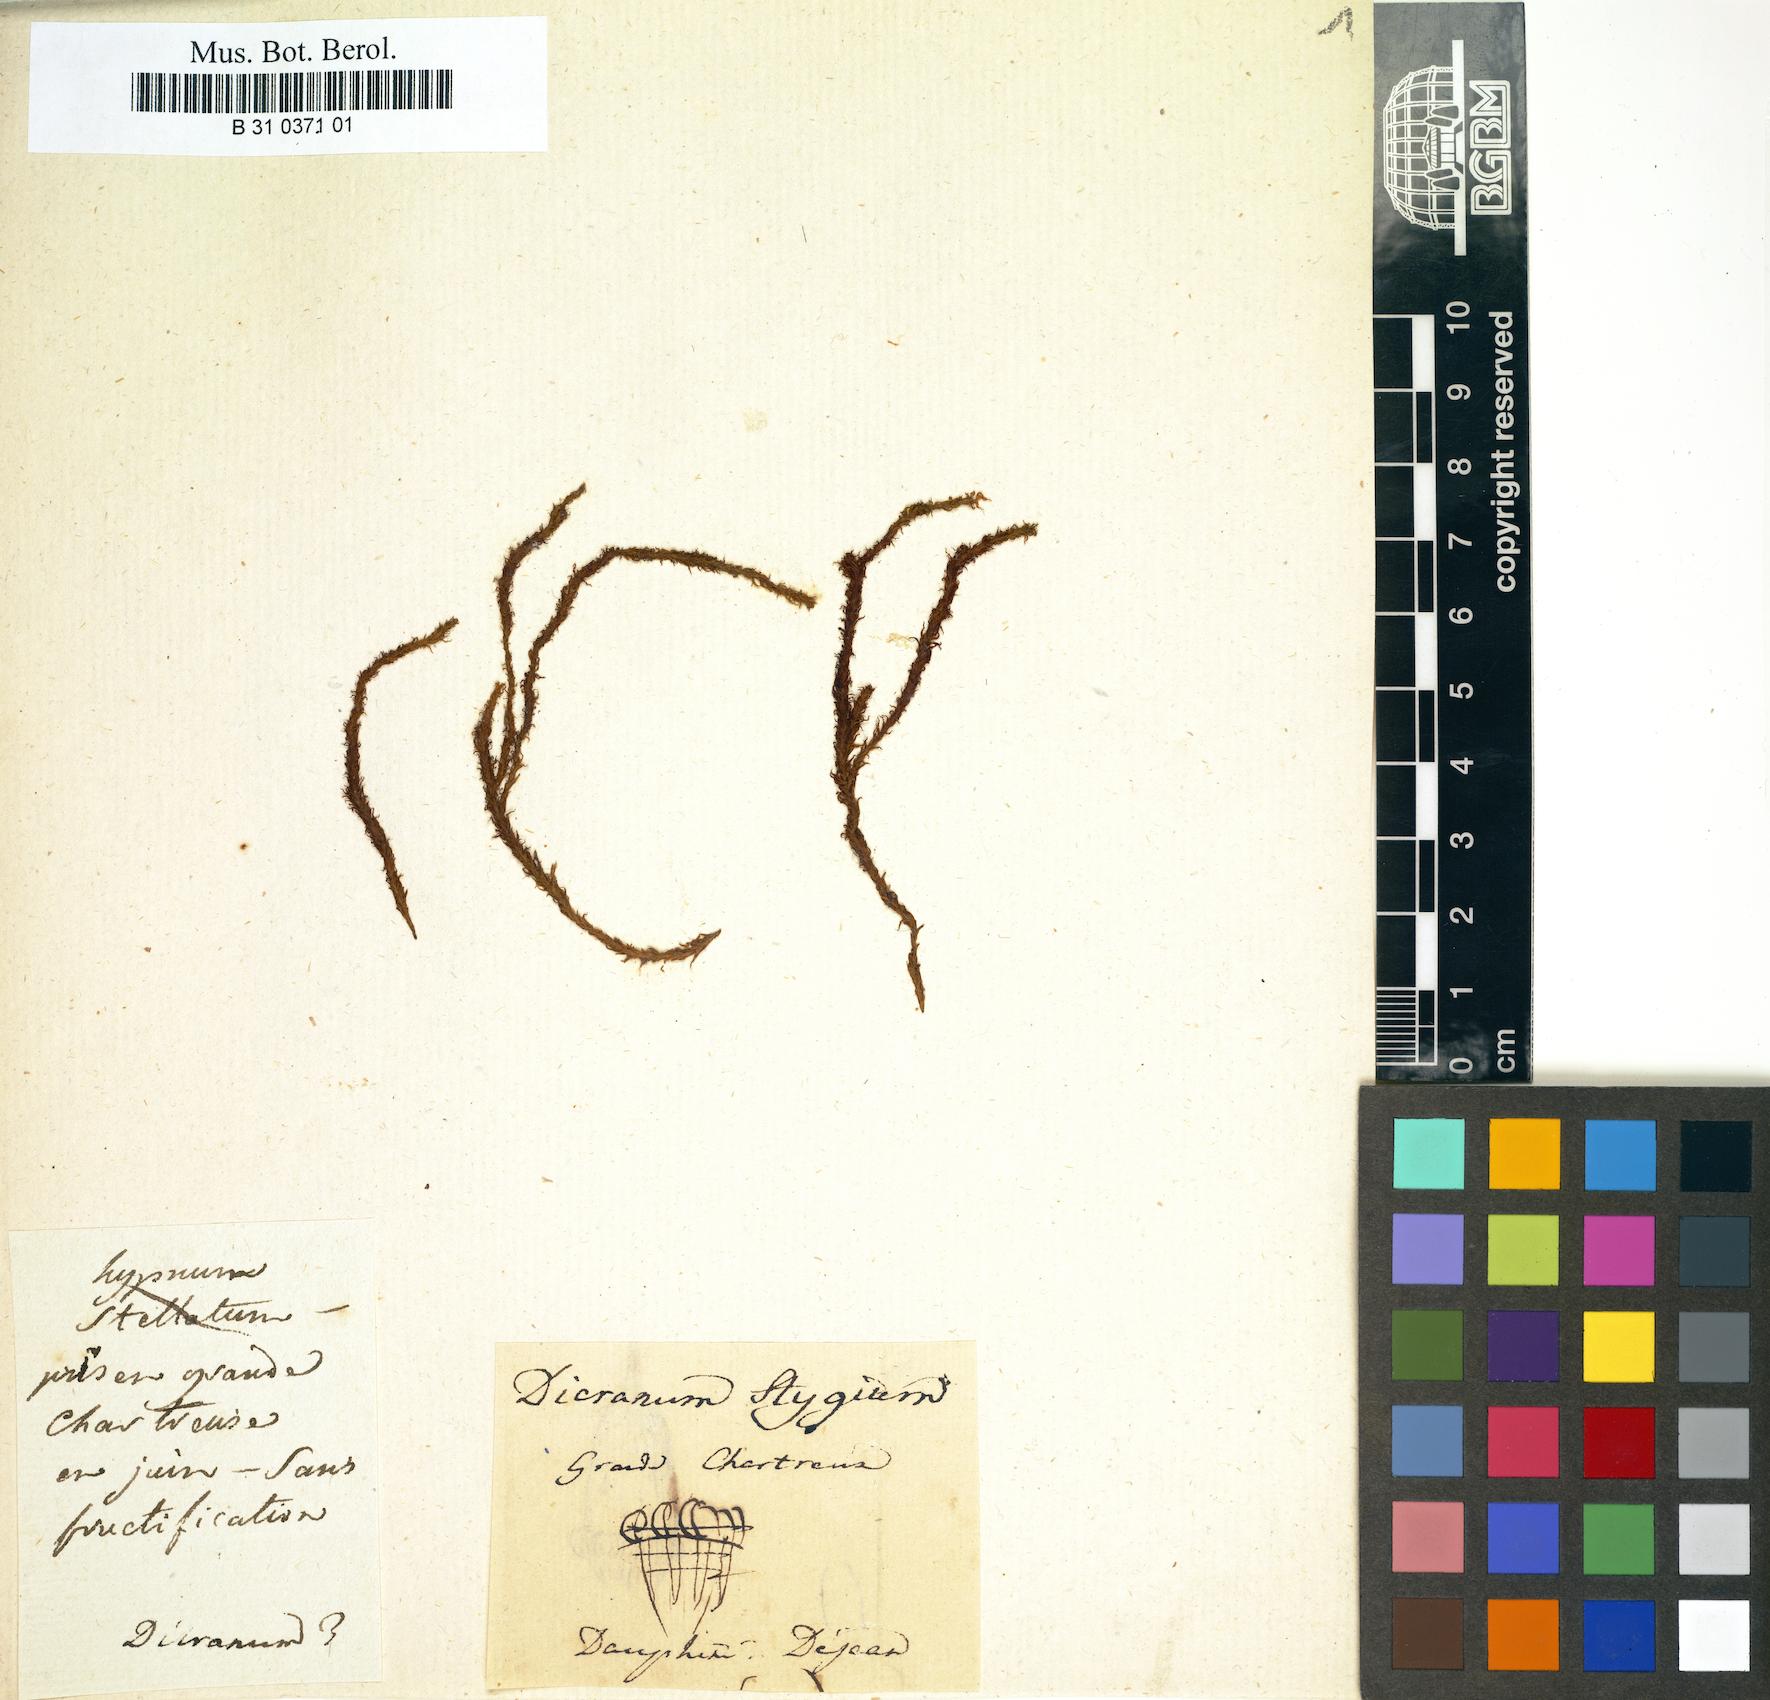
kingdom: Plantae
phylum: Bryophyta
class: Bryopsida
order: Dicranales
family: Dicranaceae
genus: Dicranum
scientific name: Dicranum stygium
